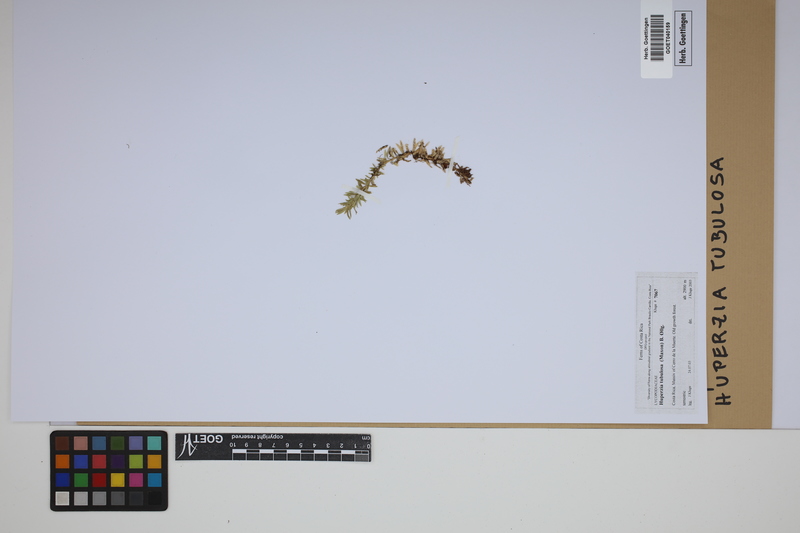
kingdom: Plantae
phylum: Tracheophyta
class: Lycopodiopsida
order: Lycopodiales
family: Lycopodiaceae
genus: Phlegmariurus
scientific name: Phlegmariurus tubulosus
